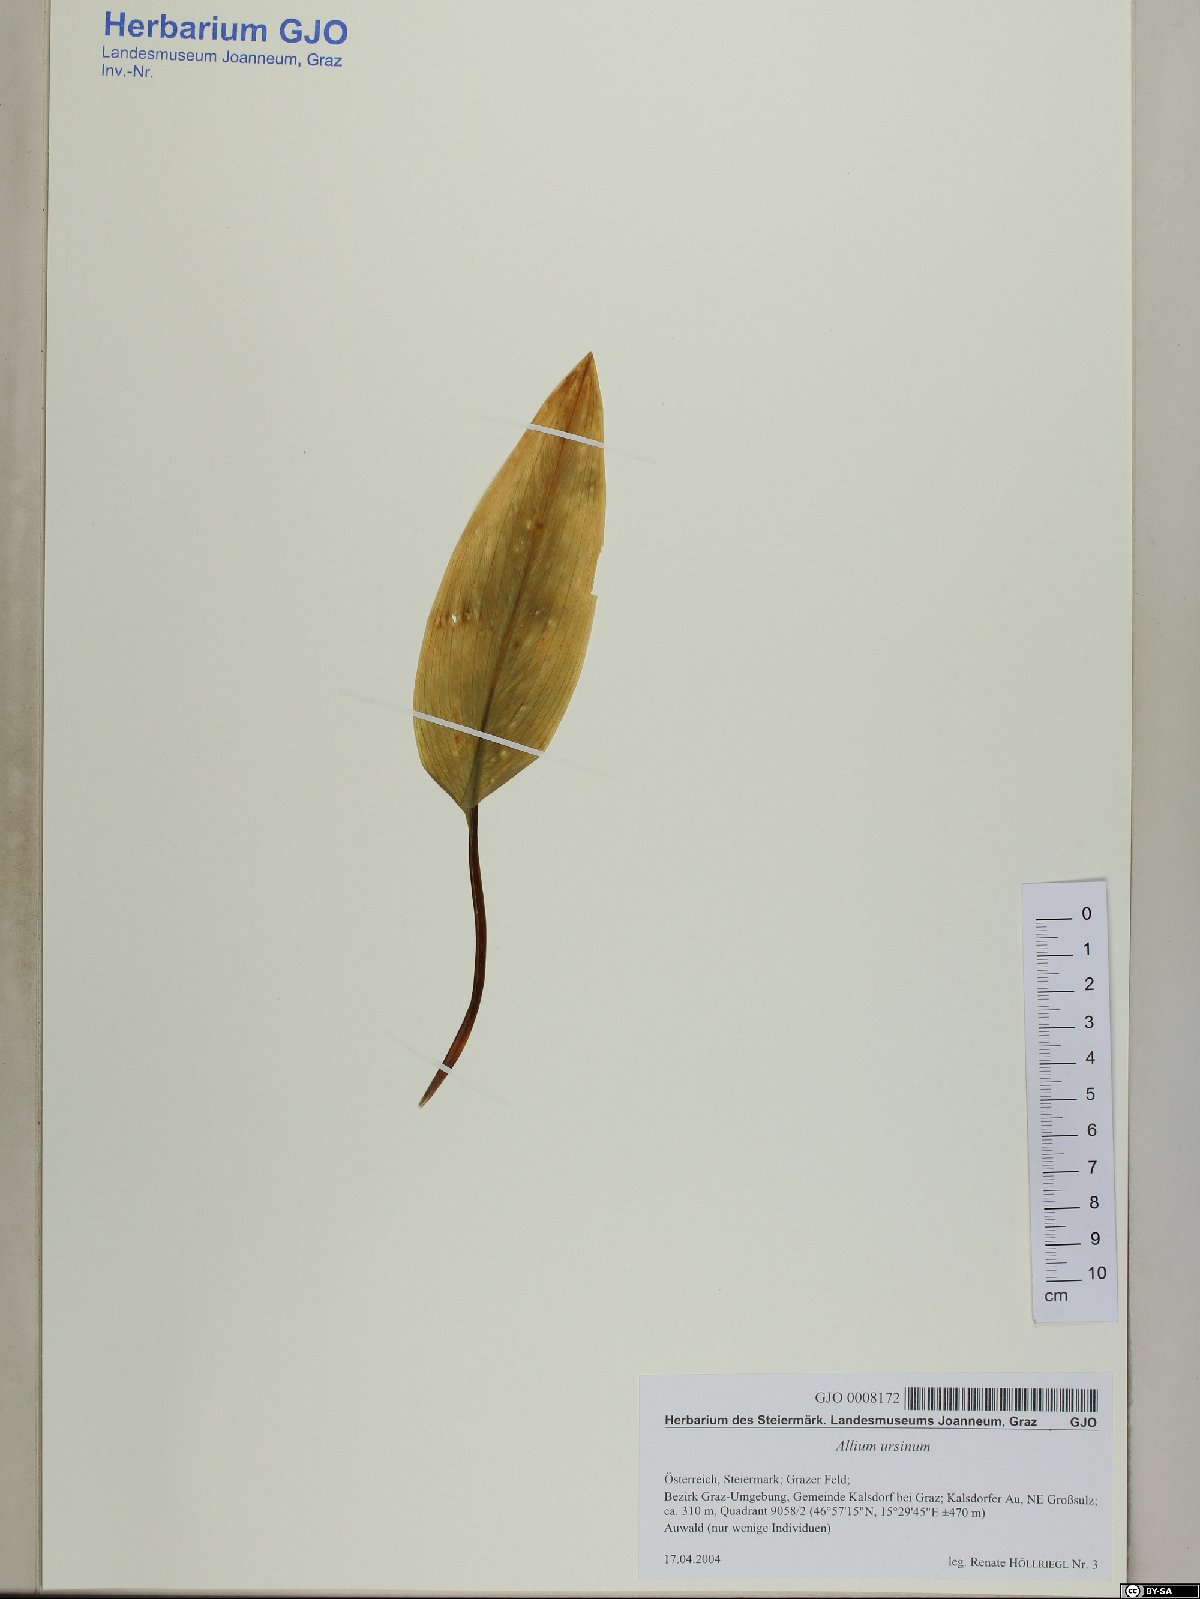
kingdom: Plantae
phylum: Tracheophyta
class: Liliopsida
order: Asparagales
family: Amaryllidaceae
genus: Allium
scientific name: Allium ursinum
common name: Ramsons
